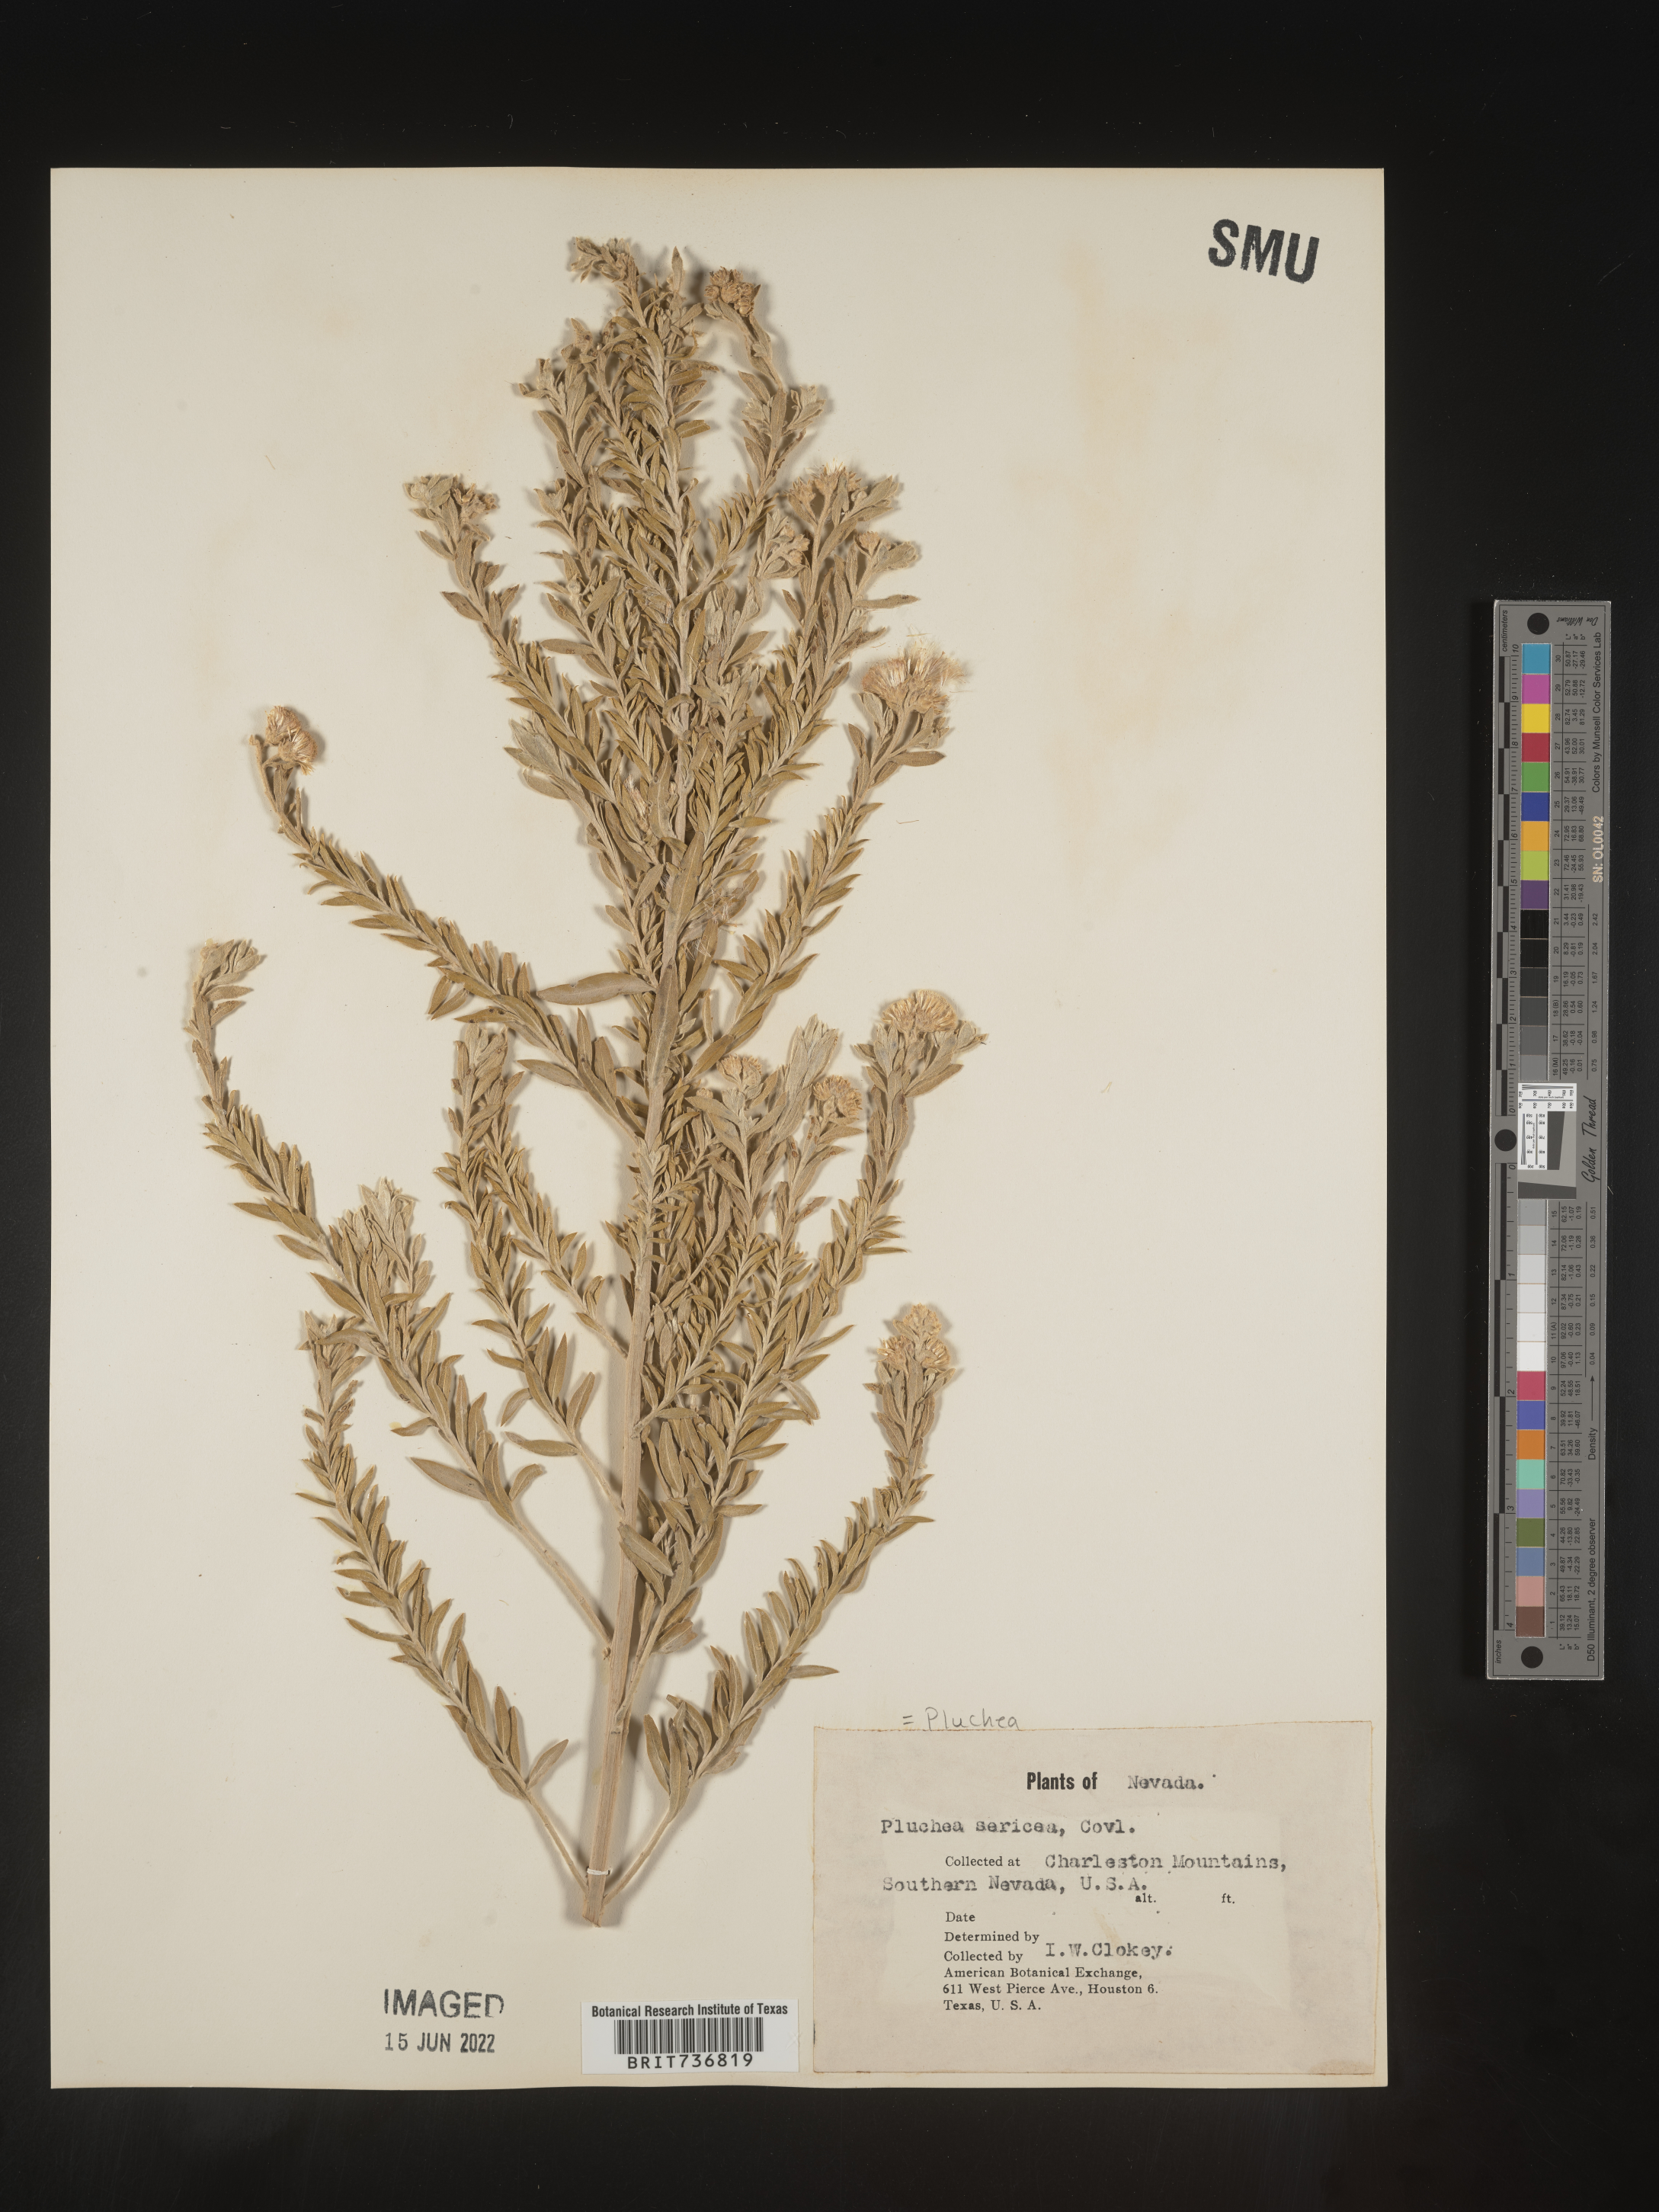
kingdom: Plantae
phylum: Tracheophyta
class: Magnoliopsida
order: Asterales
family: Asteraceae
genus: Pluchea
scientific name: Pluchea sericea
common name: Arrow-weed
